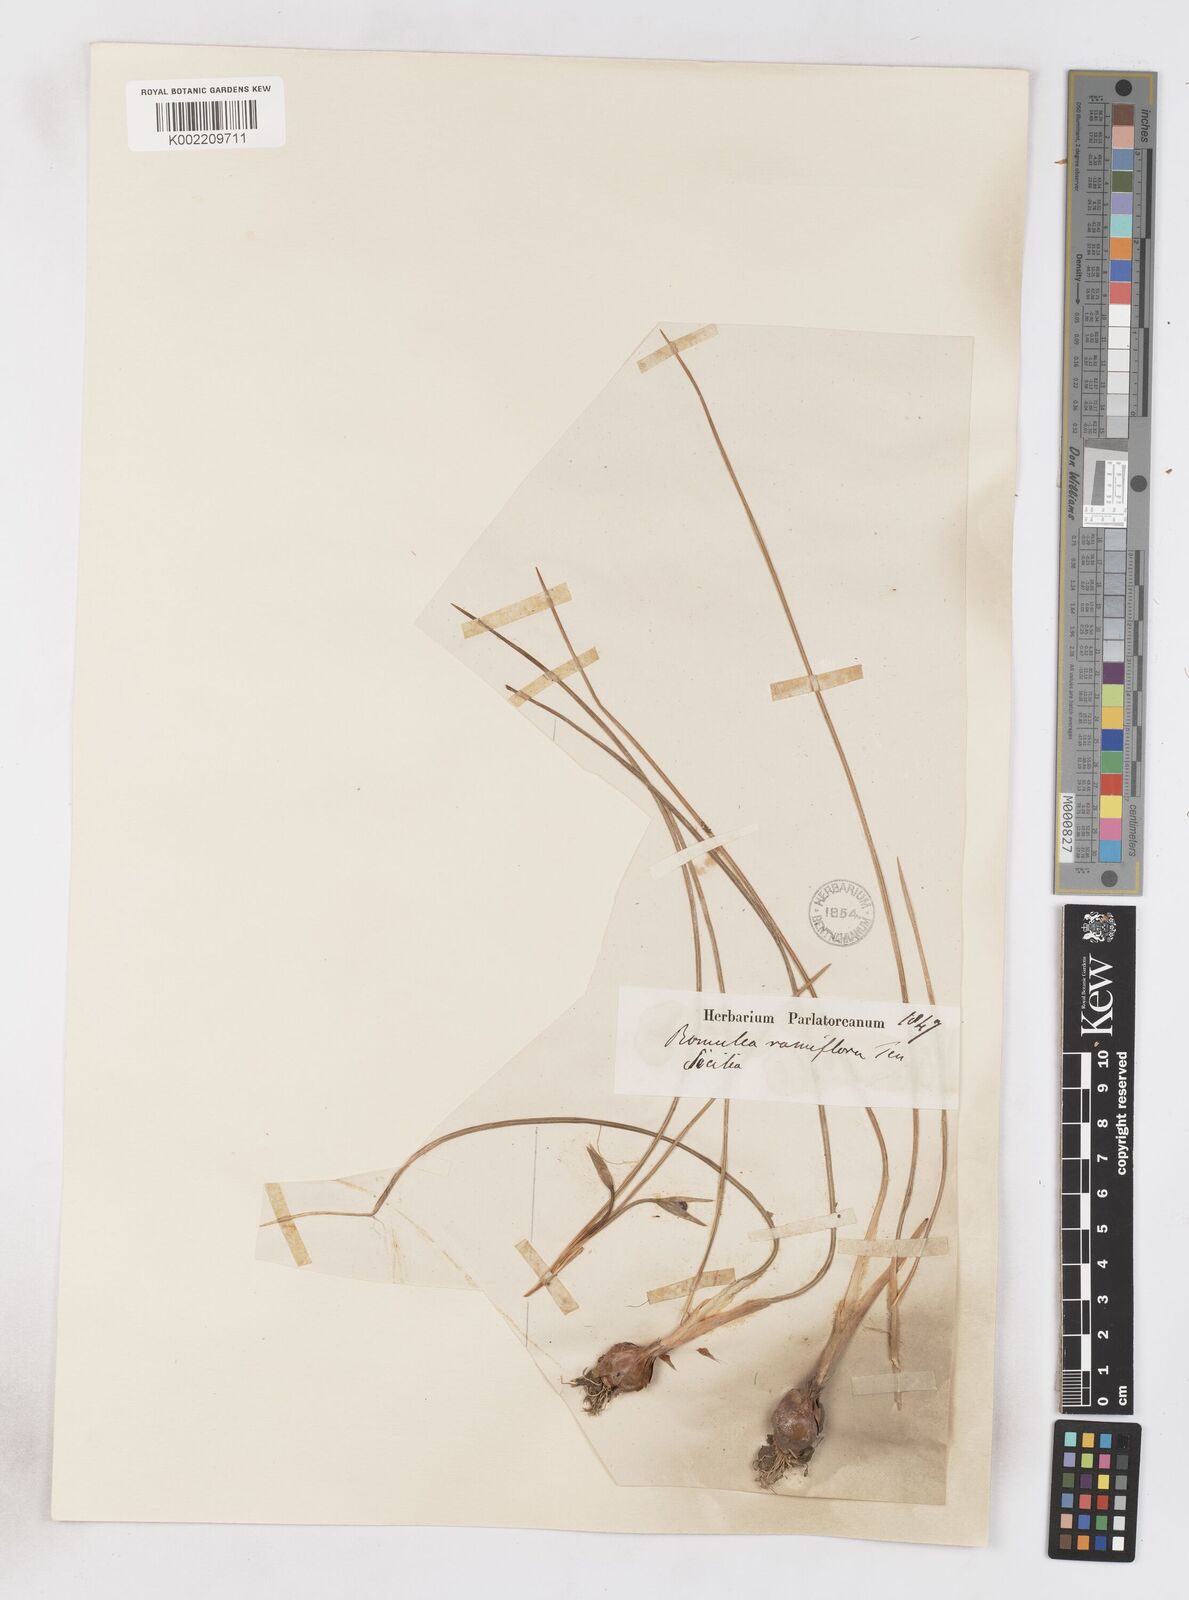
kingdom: Plantae
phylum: Tracheophyta
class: Liliopsida
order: Asparagales
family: Iridaceae
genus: Romulea
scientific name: Romulea ramiflora
